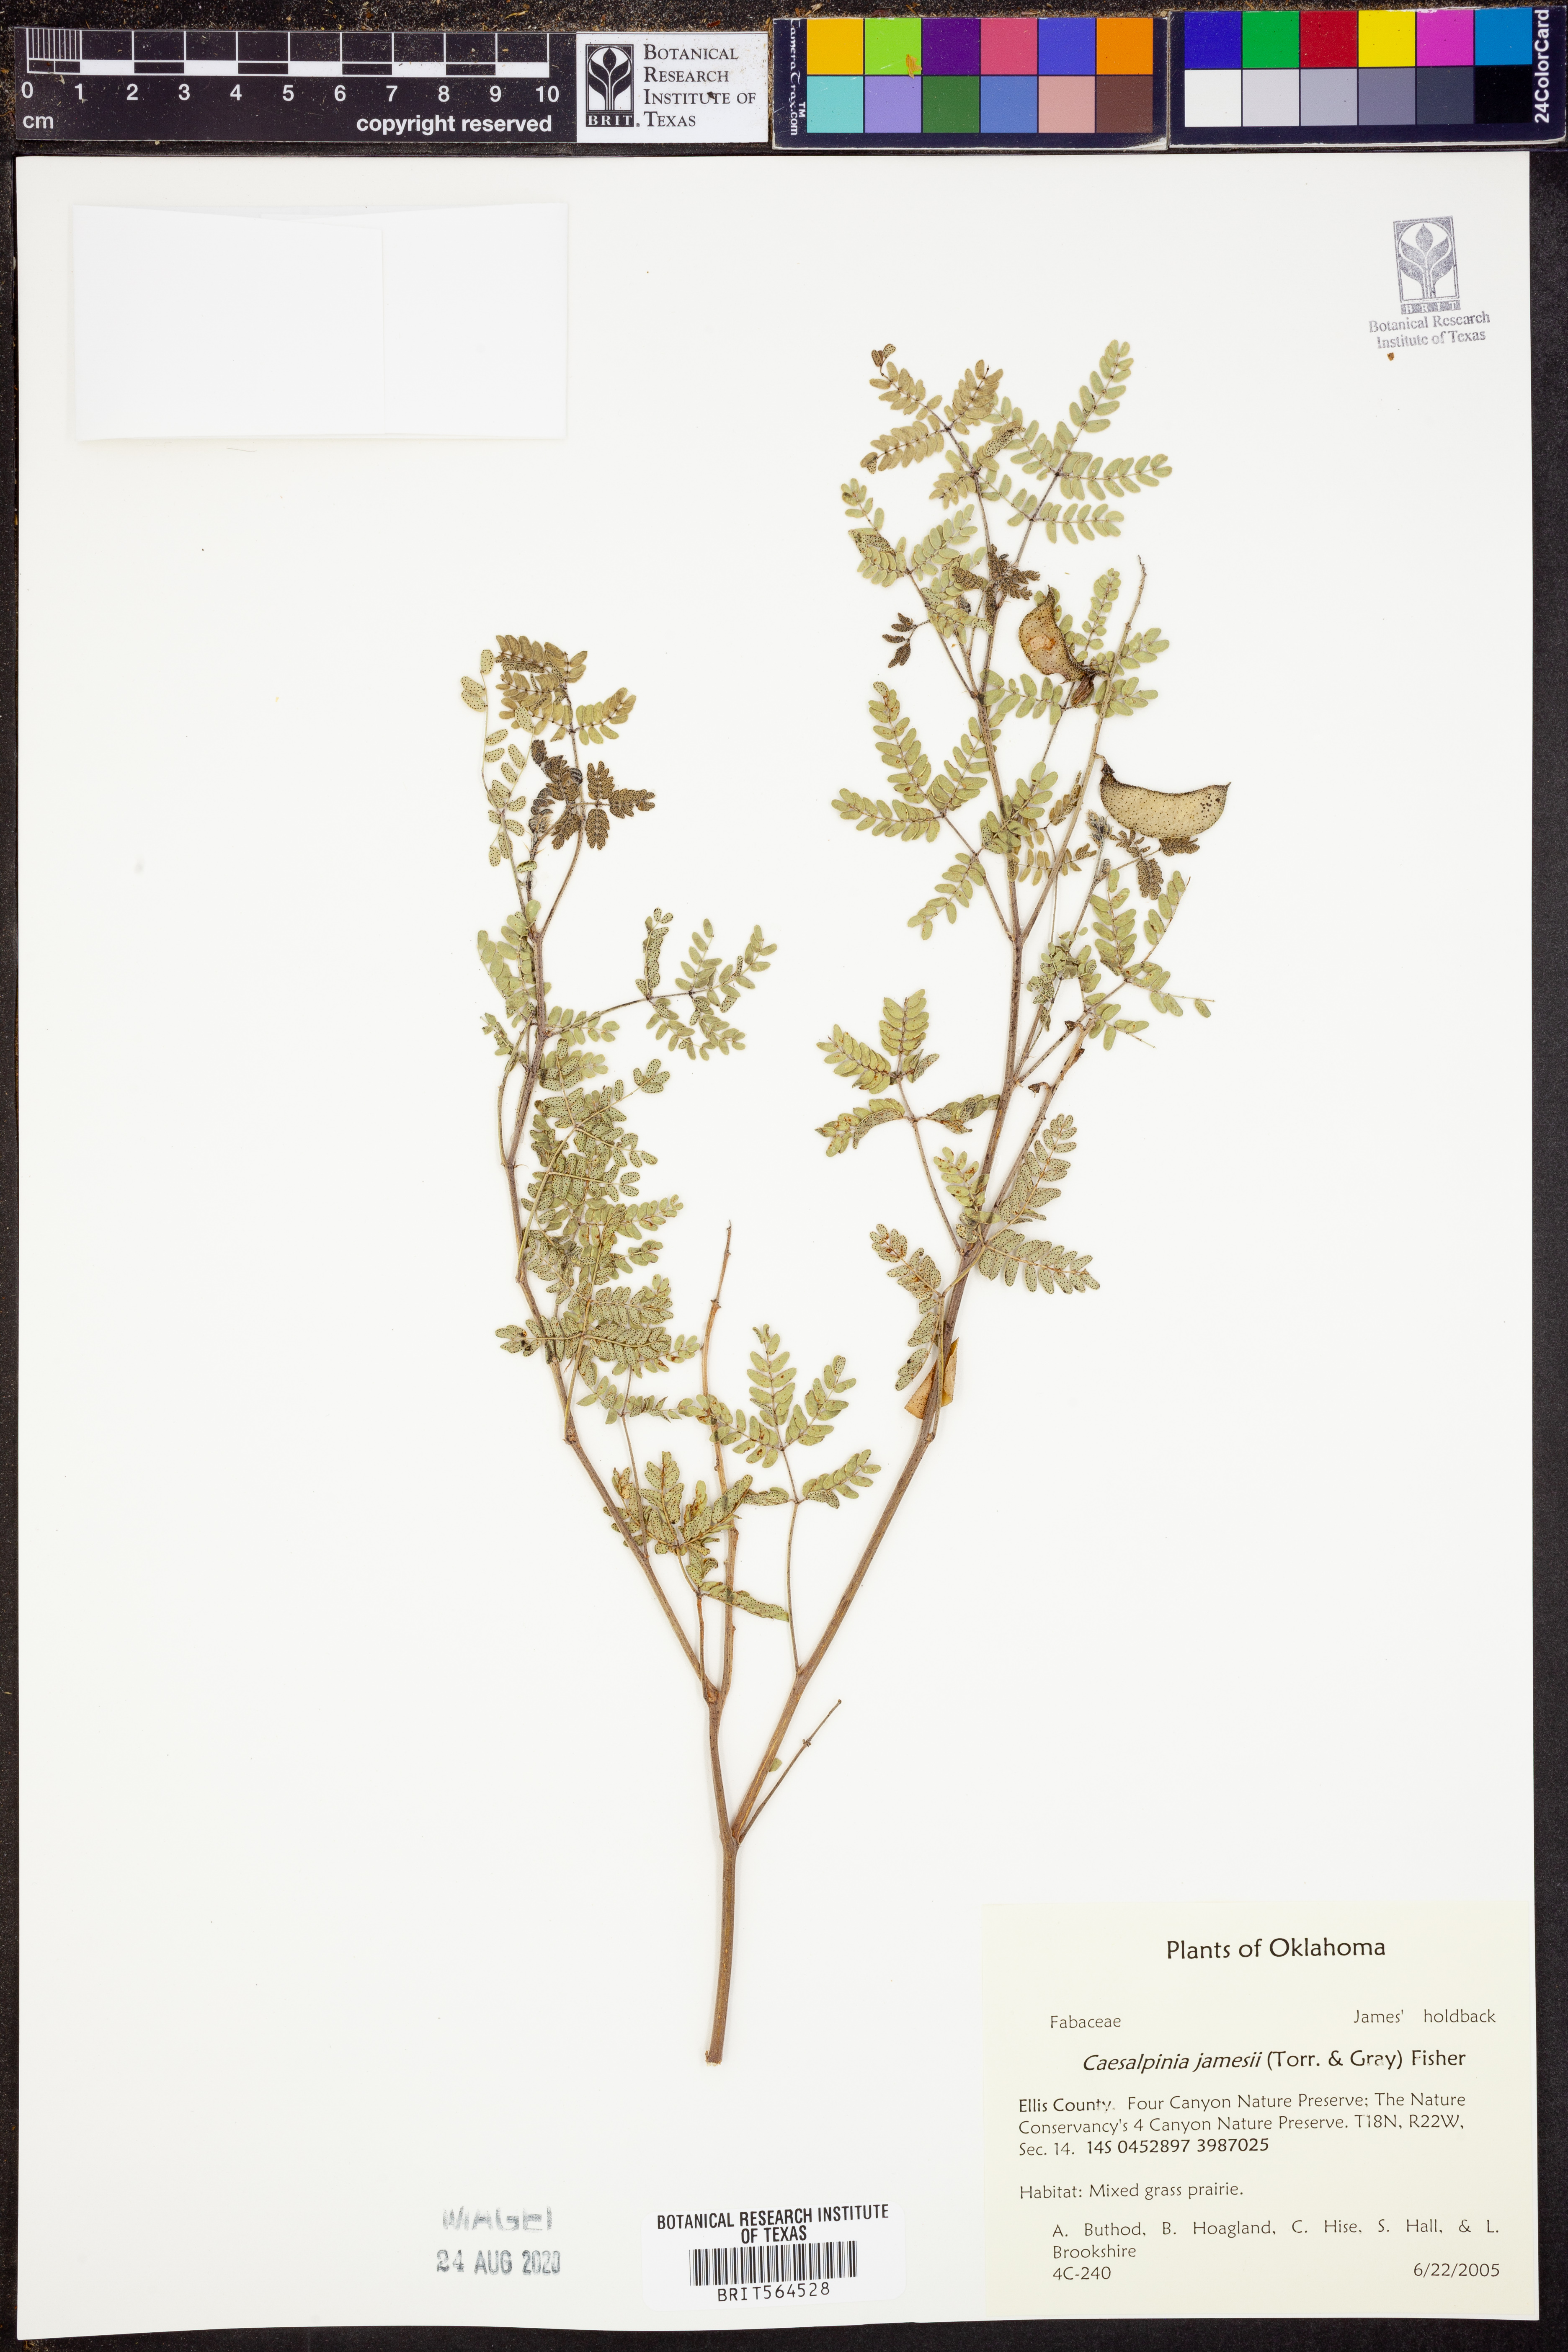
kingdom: Plantae
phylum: Tracheophyta
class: Magnoliopsida
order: Fabales
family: Fabaceae
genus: Pomaria
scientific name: Pomaria jamesii
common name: James' caesalpinia
